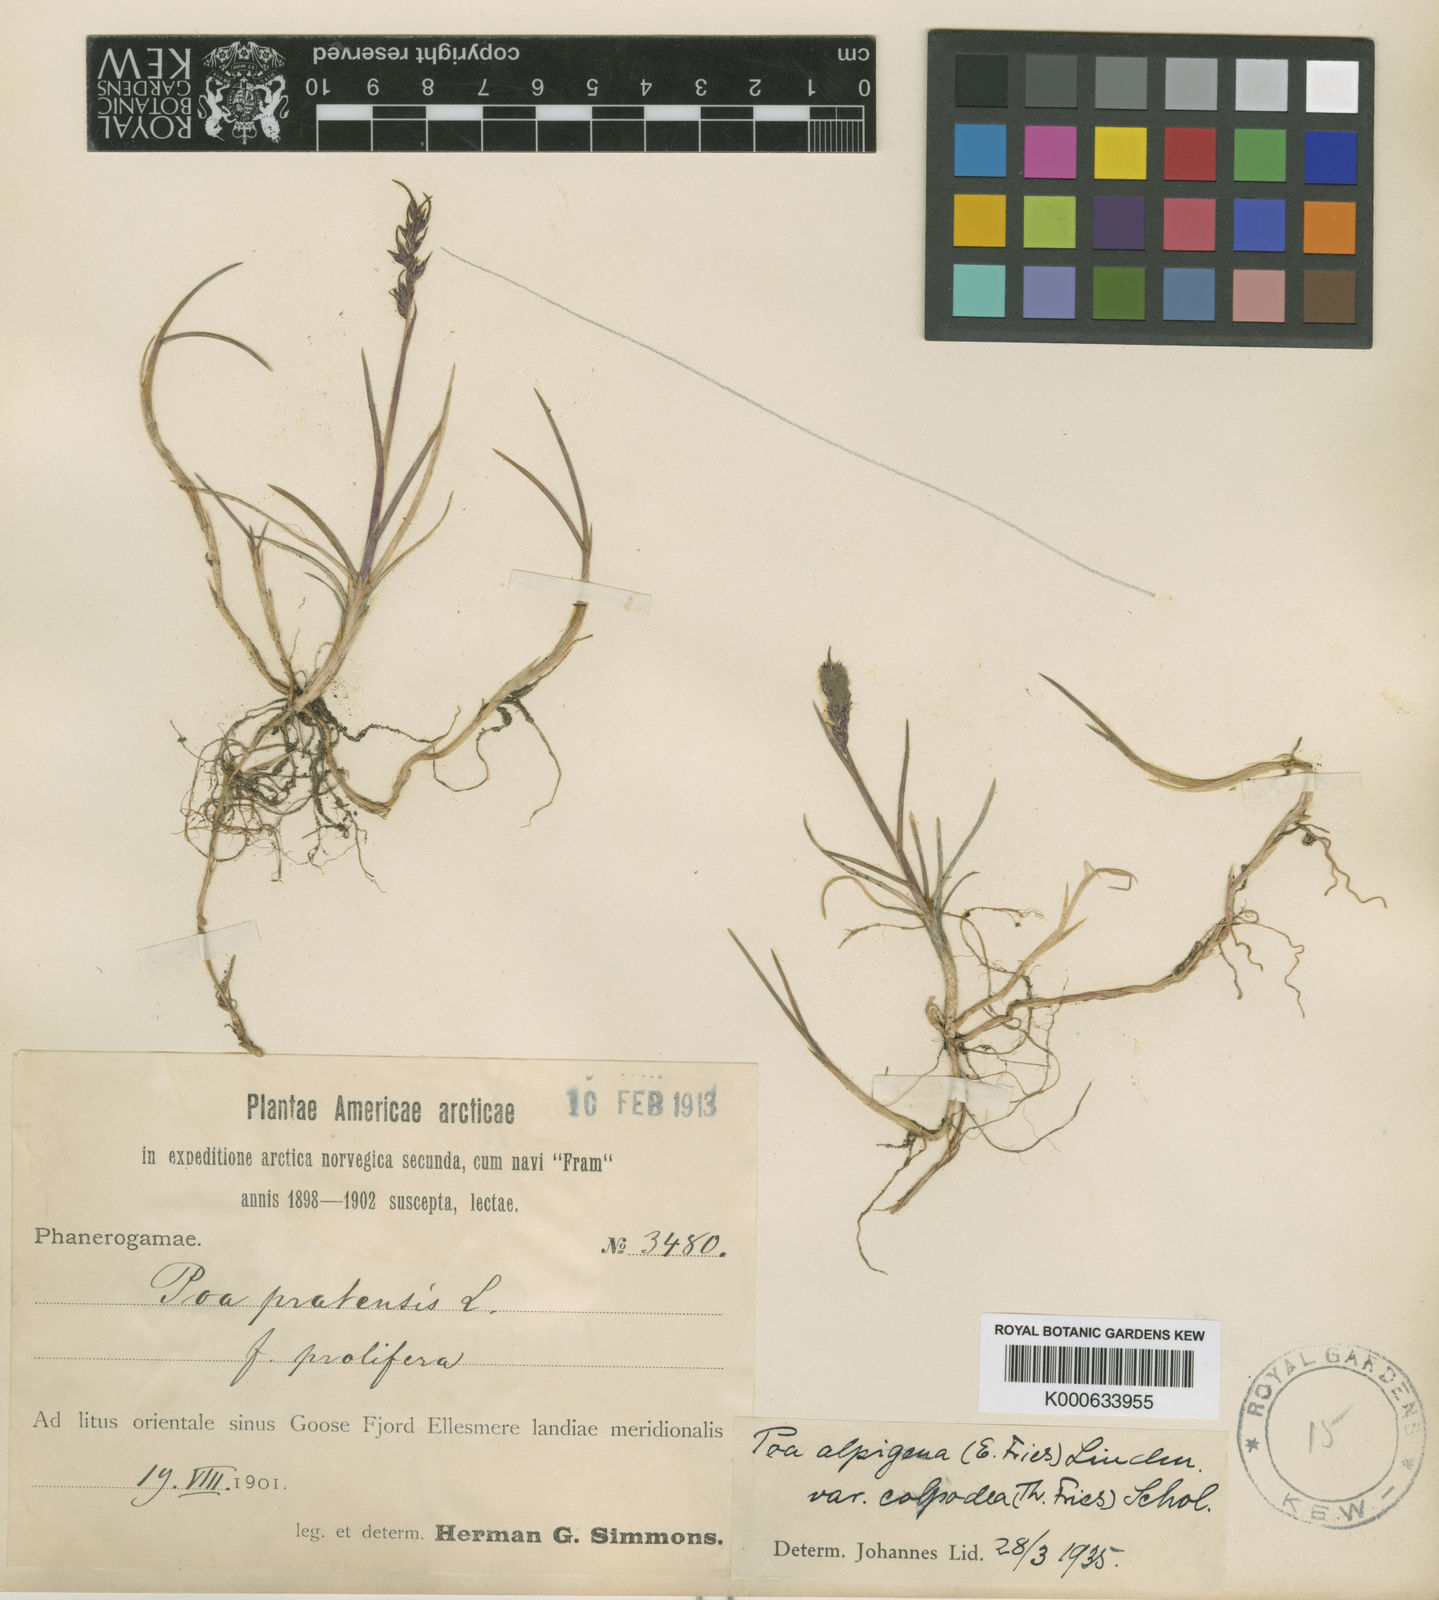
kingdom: Plantae
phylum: Tracheophyta
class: Liliopsida
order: Poales
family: Poaceae
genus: Poa
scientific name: Poa alpigena
